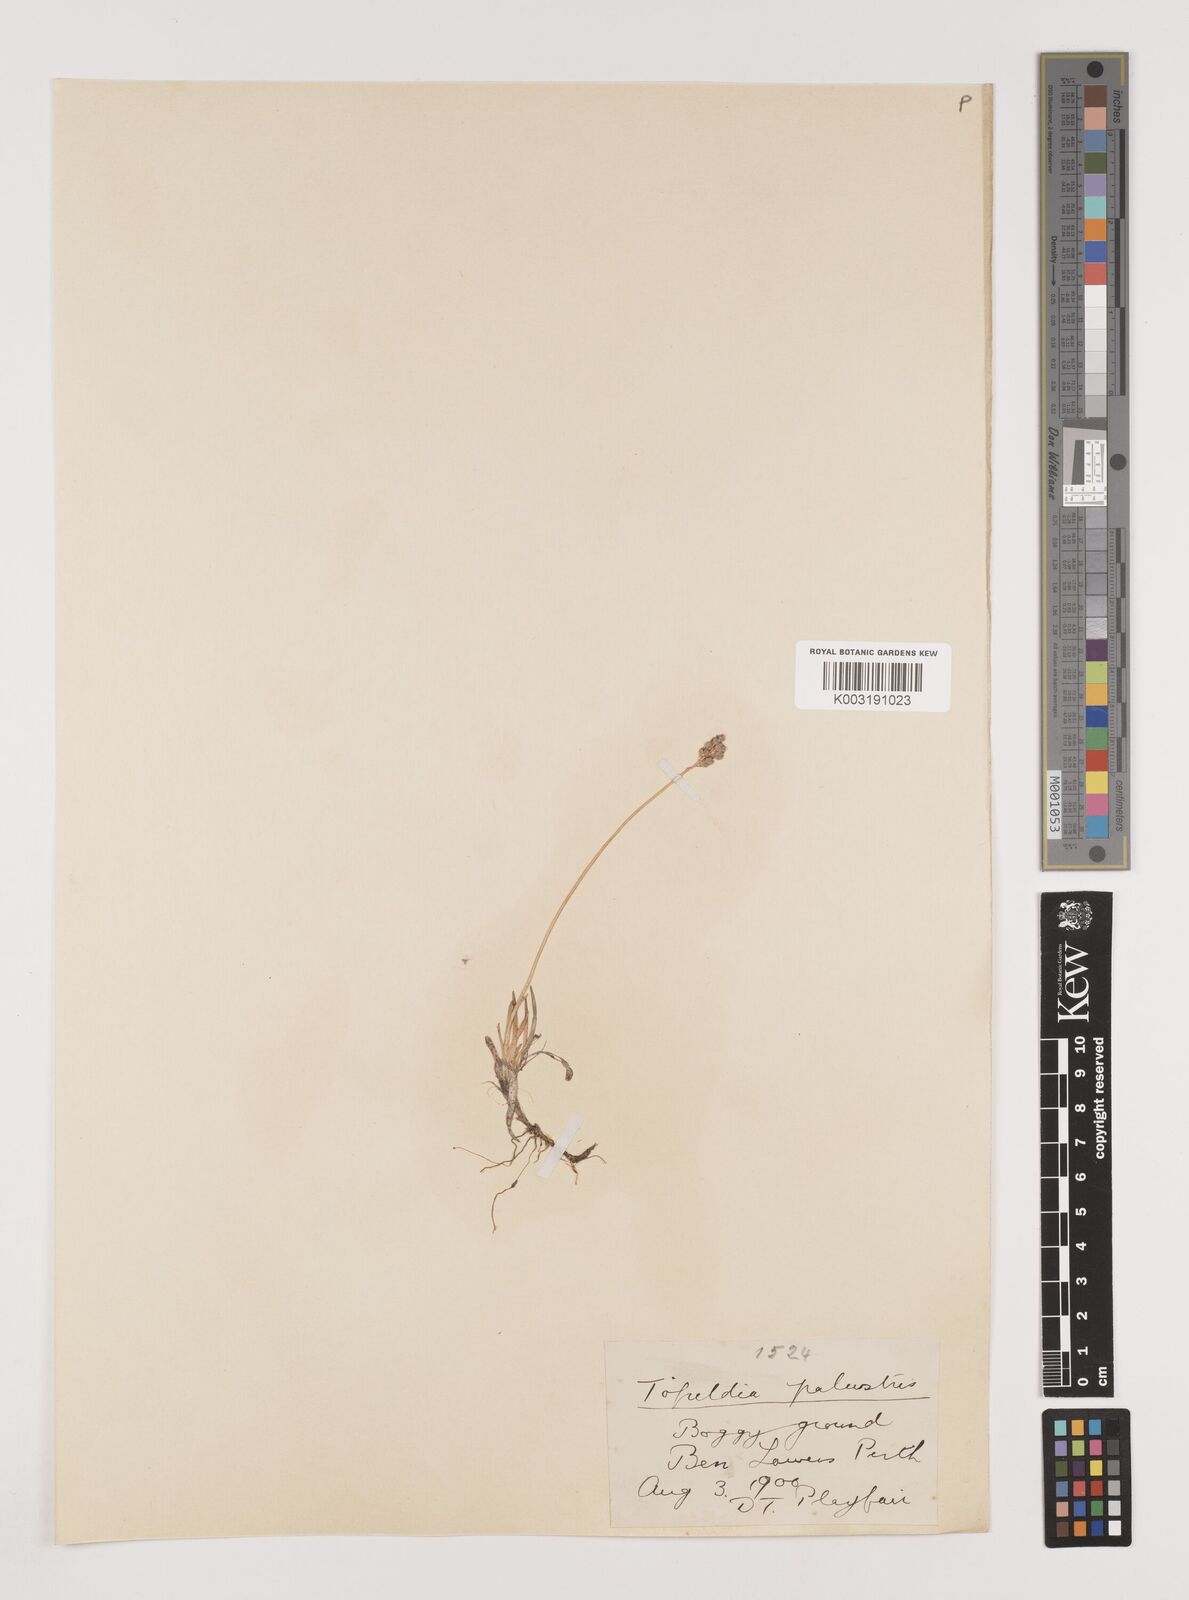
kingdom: Plantae
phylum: Tracheophyta
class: Liliopsida
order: Alismatales
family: Tofieldiaceae
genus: Tofieldia
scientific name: Tofieldia pusilla
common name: Scottish false asphodel
